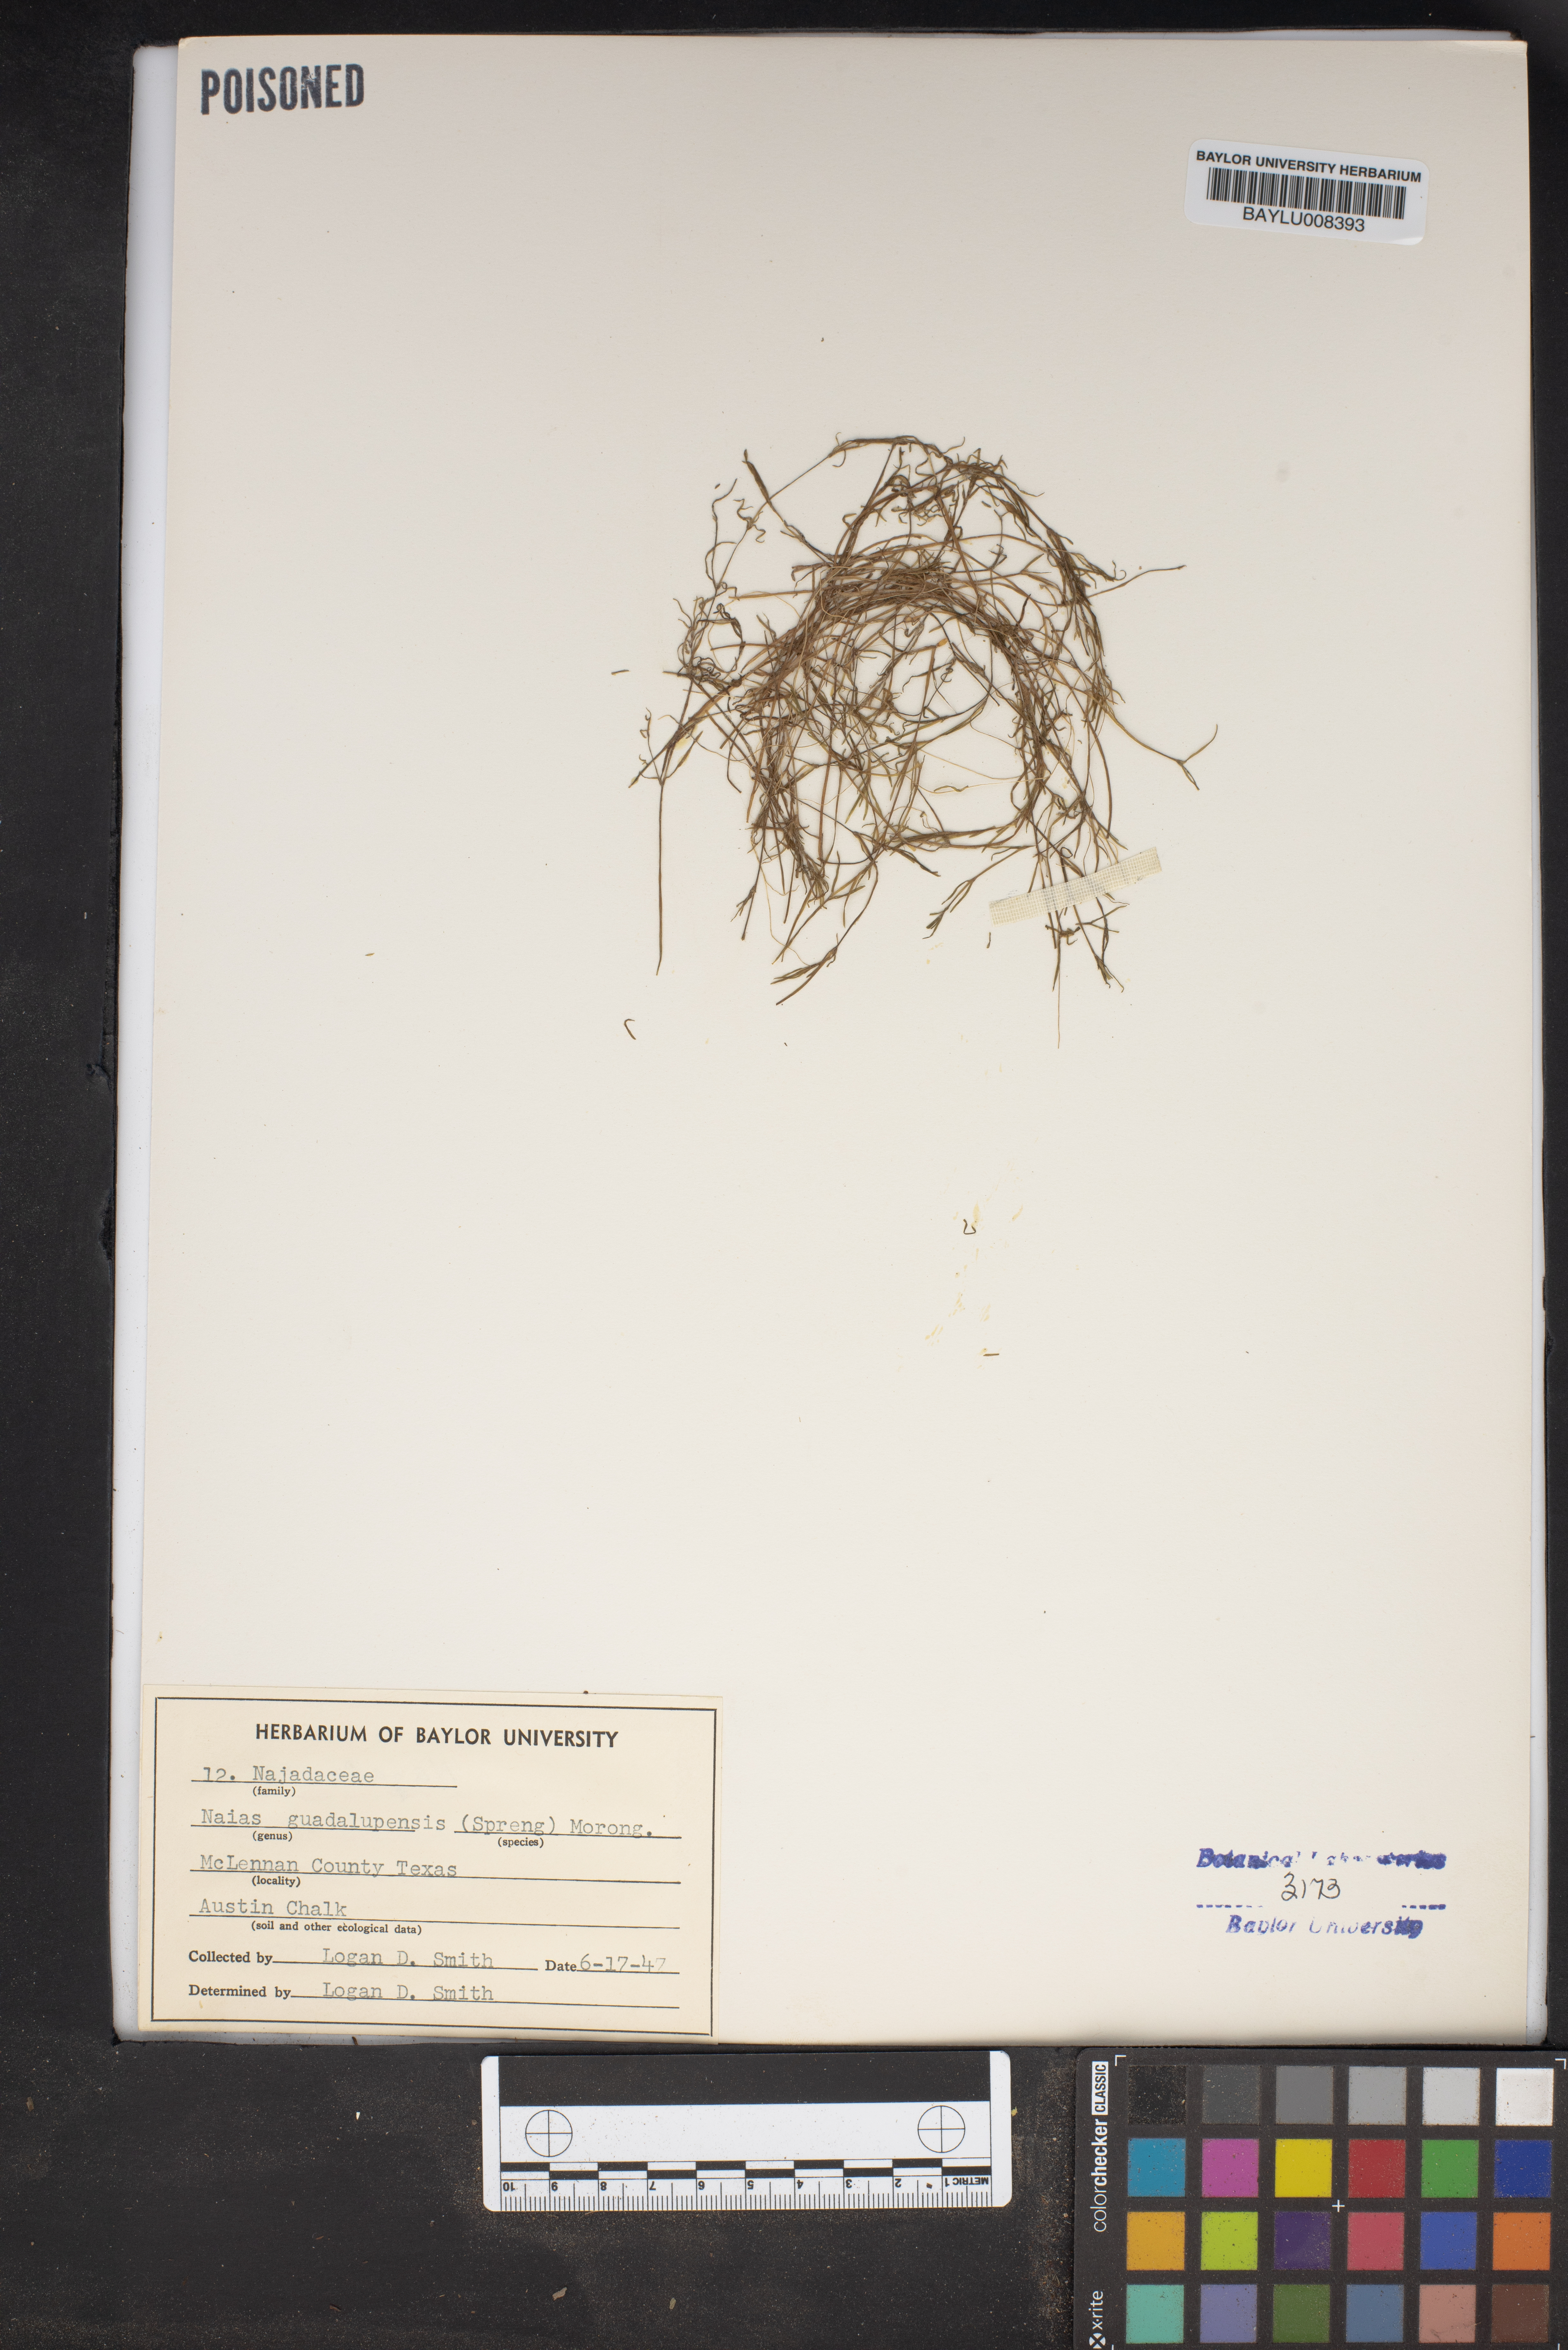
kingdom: Plantae
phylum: Tracheophyta
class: Liliopsida
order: Alismatales
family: Hydrocharitaceae
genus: Najas
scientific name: Najas guadalupensis
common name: Southern naiad
